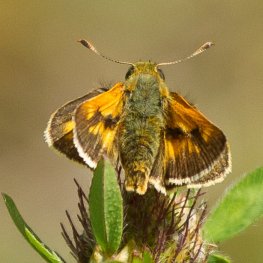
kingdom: Animalia
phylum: Arthropoda
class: Insecta
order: Lepidoptera
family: Hesperiidae
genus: Polites
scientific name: Polites
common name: Long Dash Skipper
